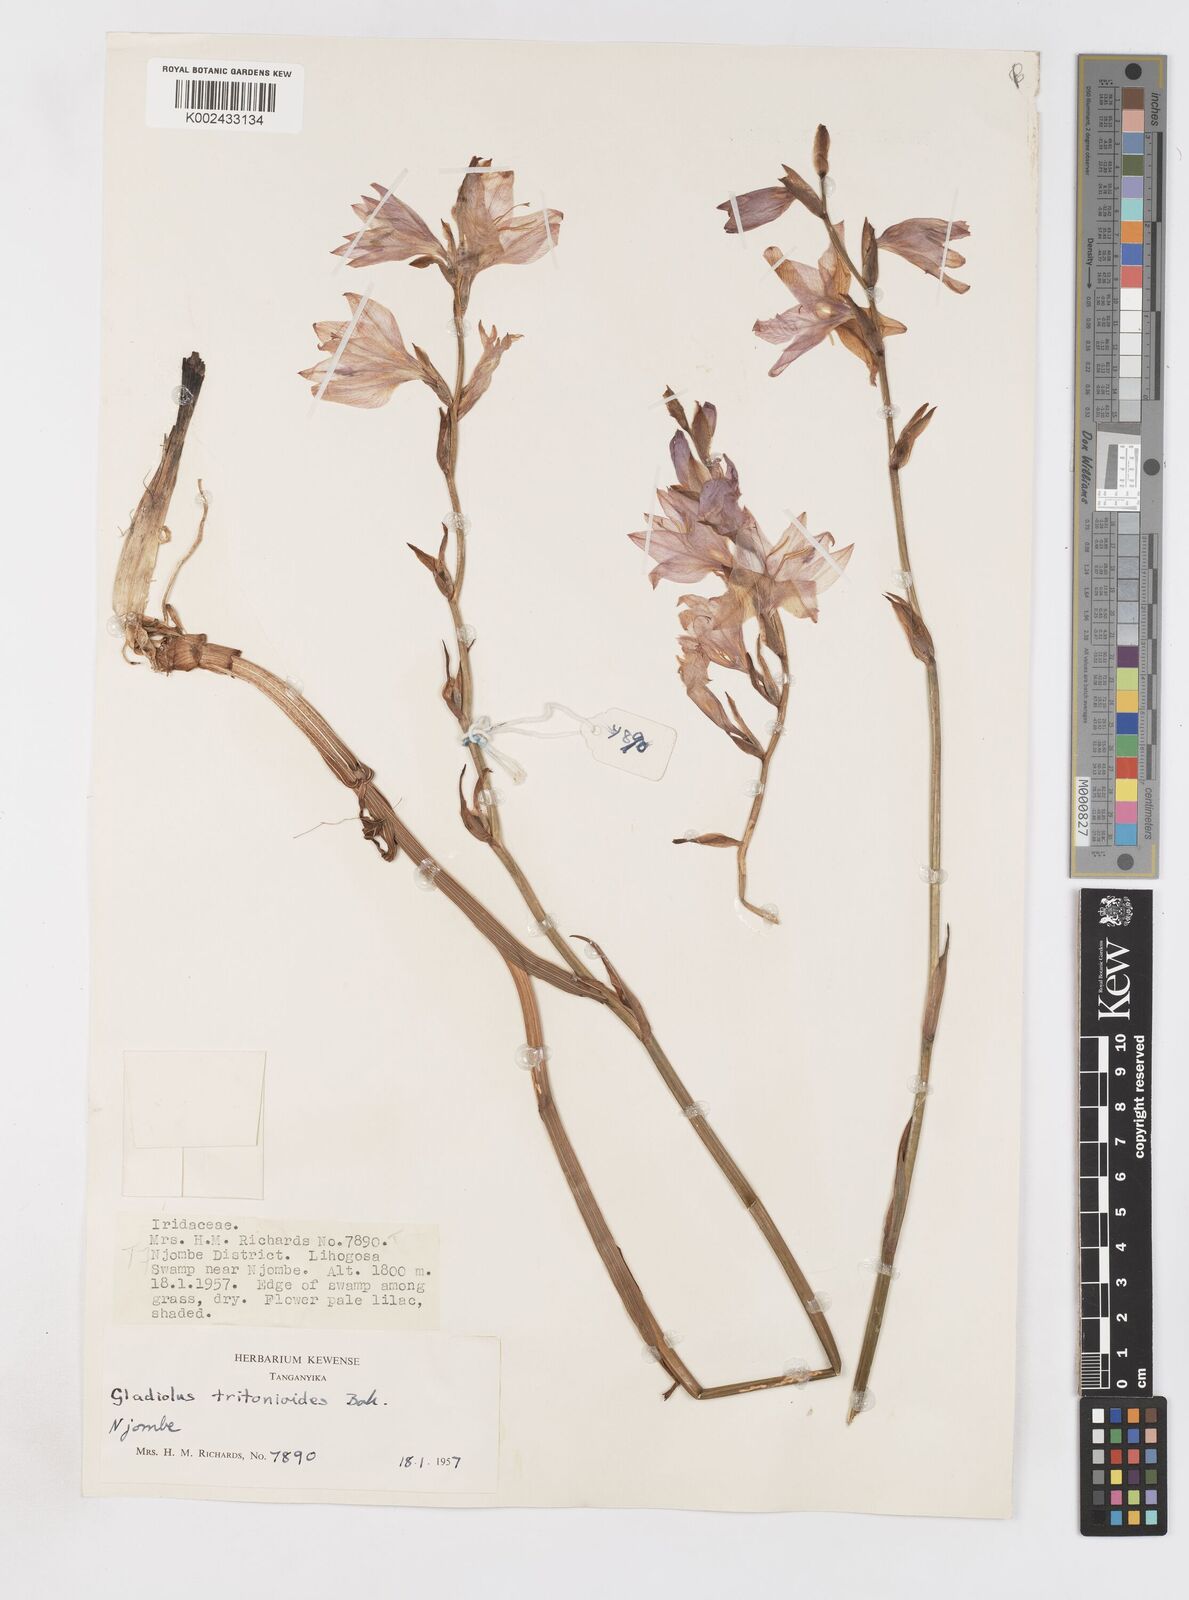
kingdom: Plantae
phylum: Tracheophyta
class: Liliopsida
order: Asparagales
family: Iridaceae
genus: Gladiolus
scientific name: Gladiolus laxiflorus
